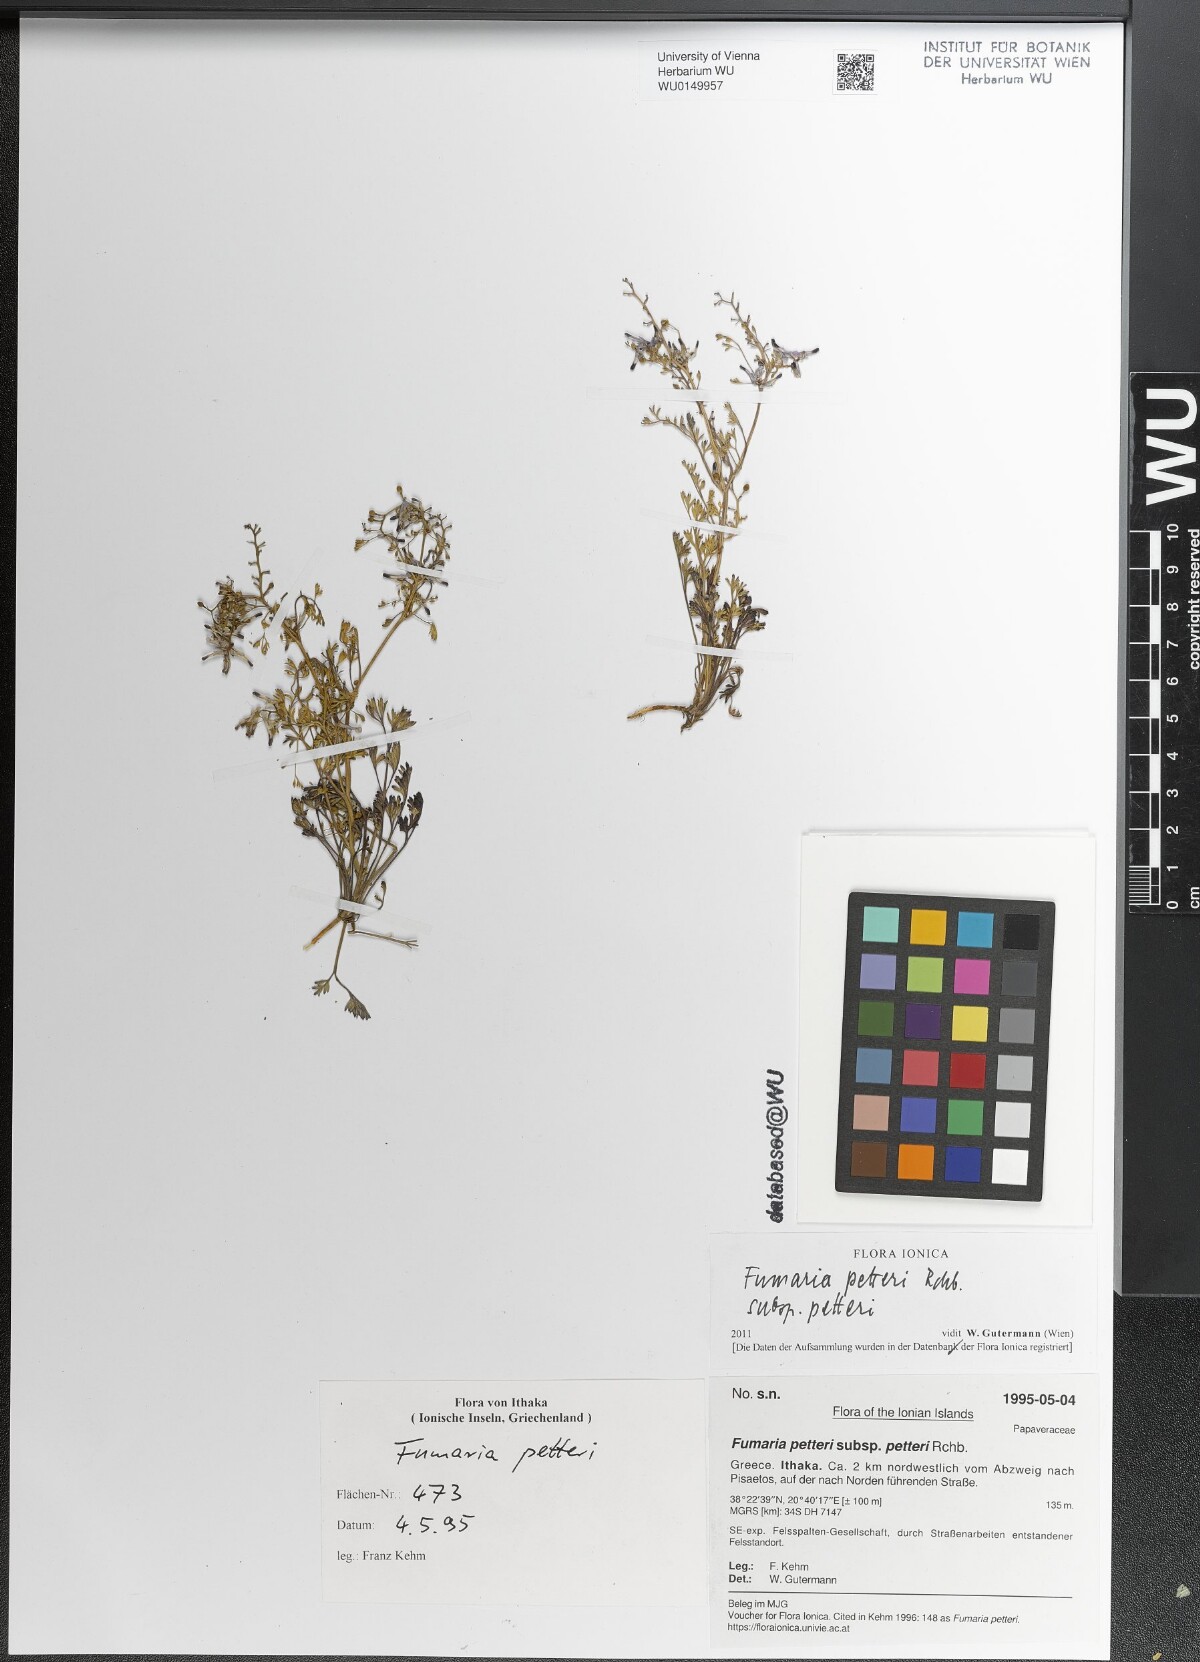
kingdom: Plantae
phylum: Tracheophyta
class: Magnoliopsida
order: Ranunculales
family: Papaveraceae
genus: Fumaria
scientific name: Fumaria petteri
